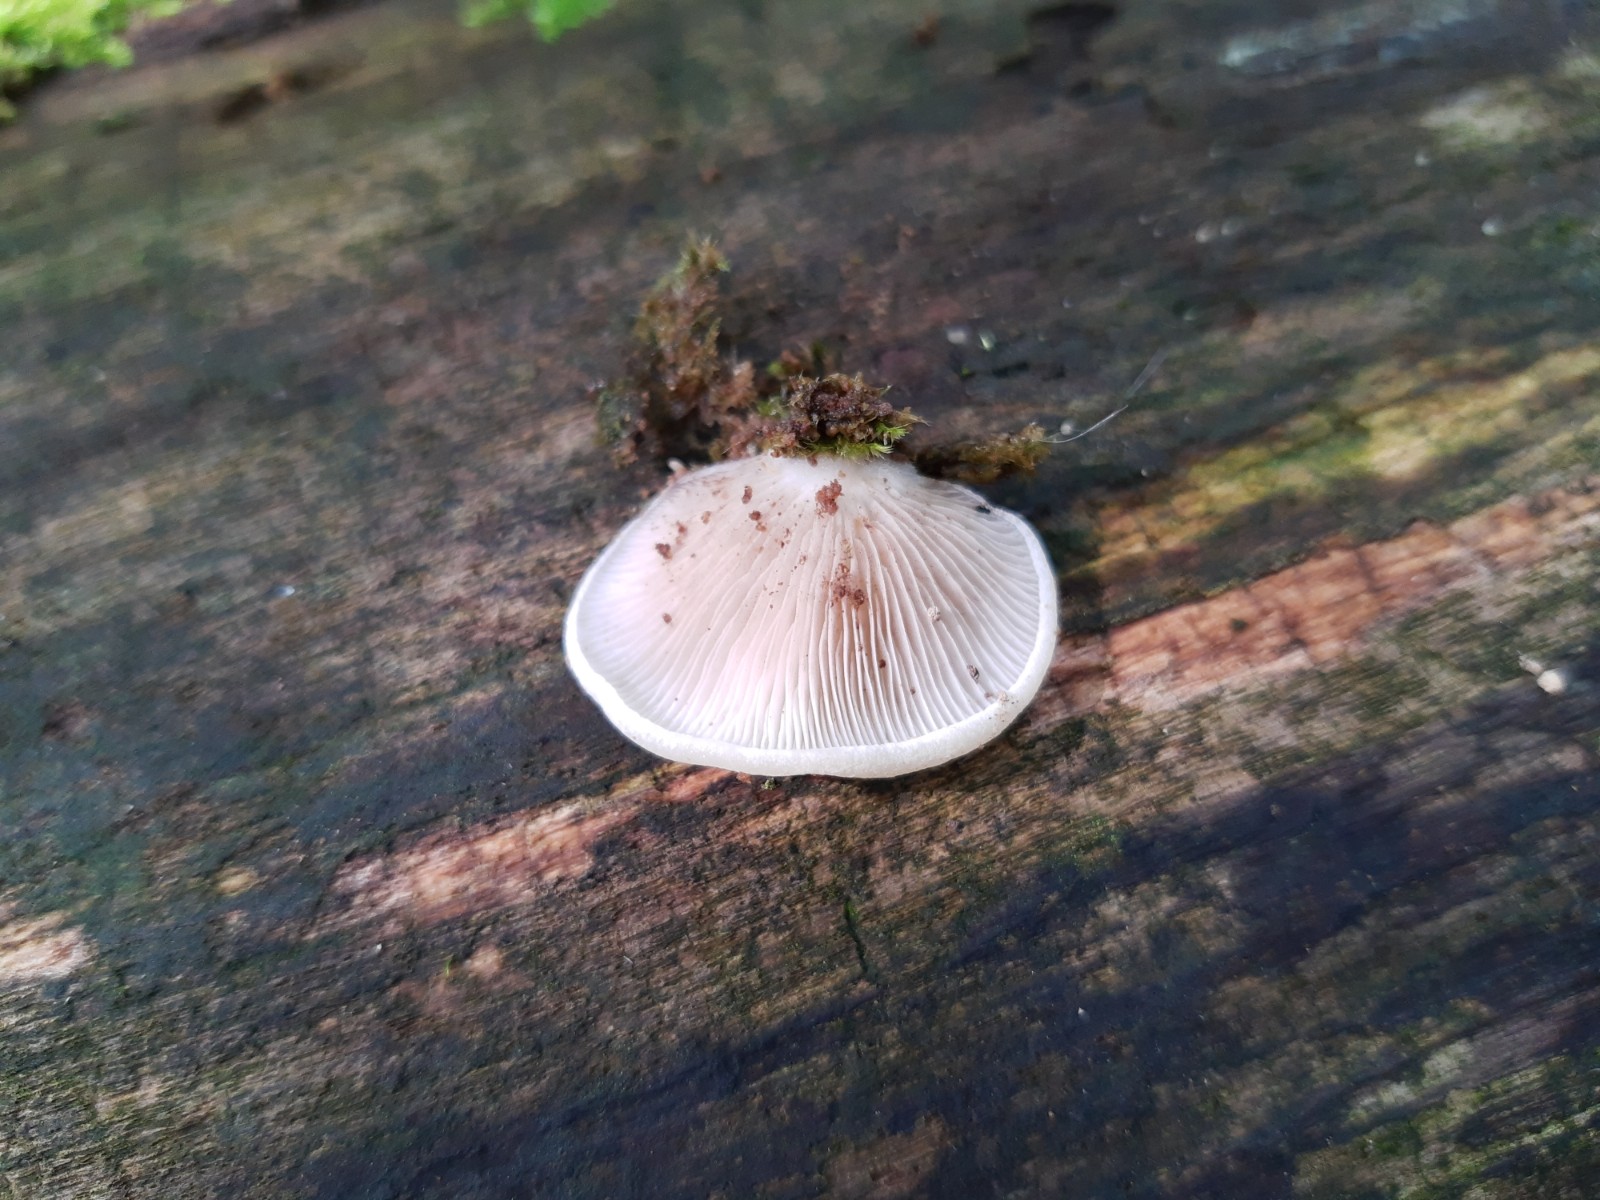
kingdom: Fungi
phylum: Basidiomycota
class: Agaricomycetes
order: Agaricales
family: Crepidotaceae
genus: Crepidotus
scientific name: Crepidotus mollis
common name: blød muslingesvamp
